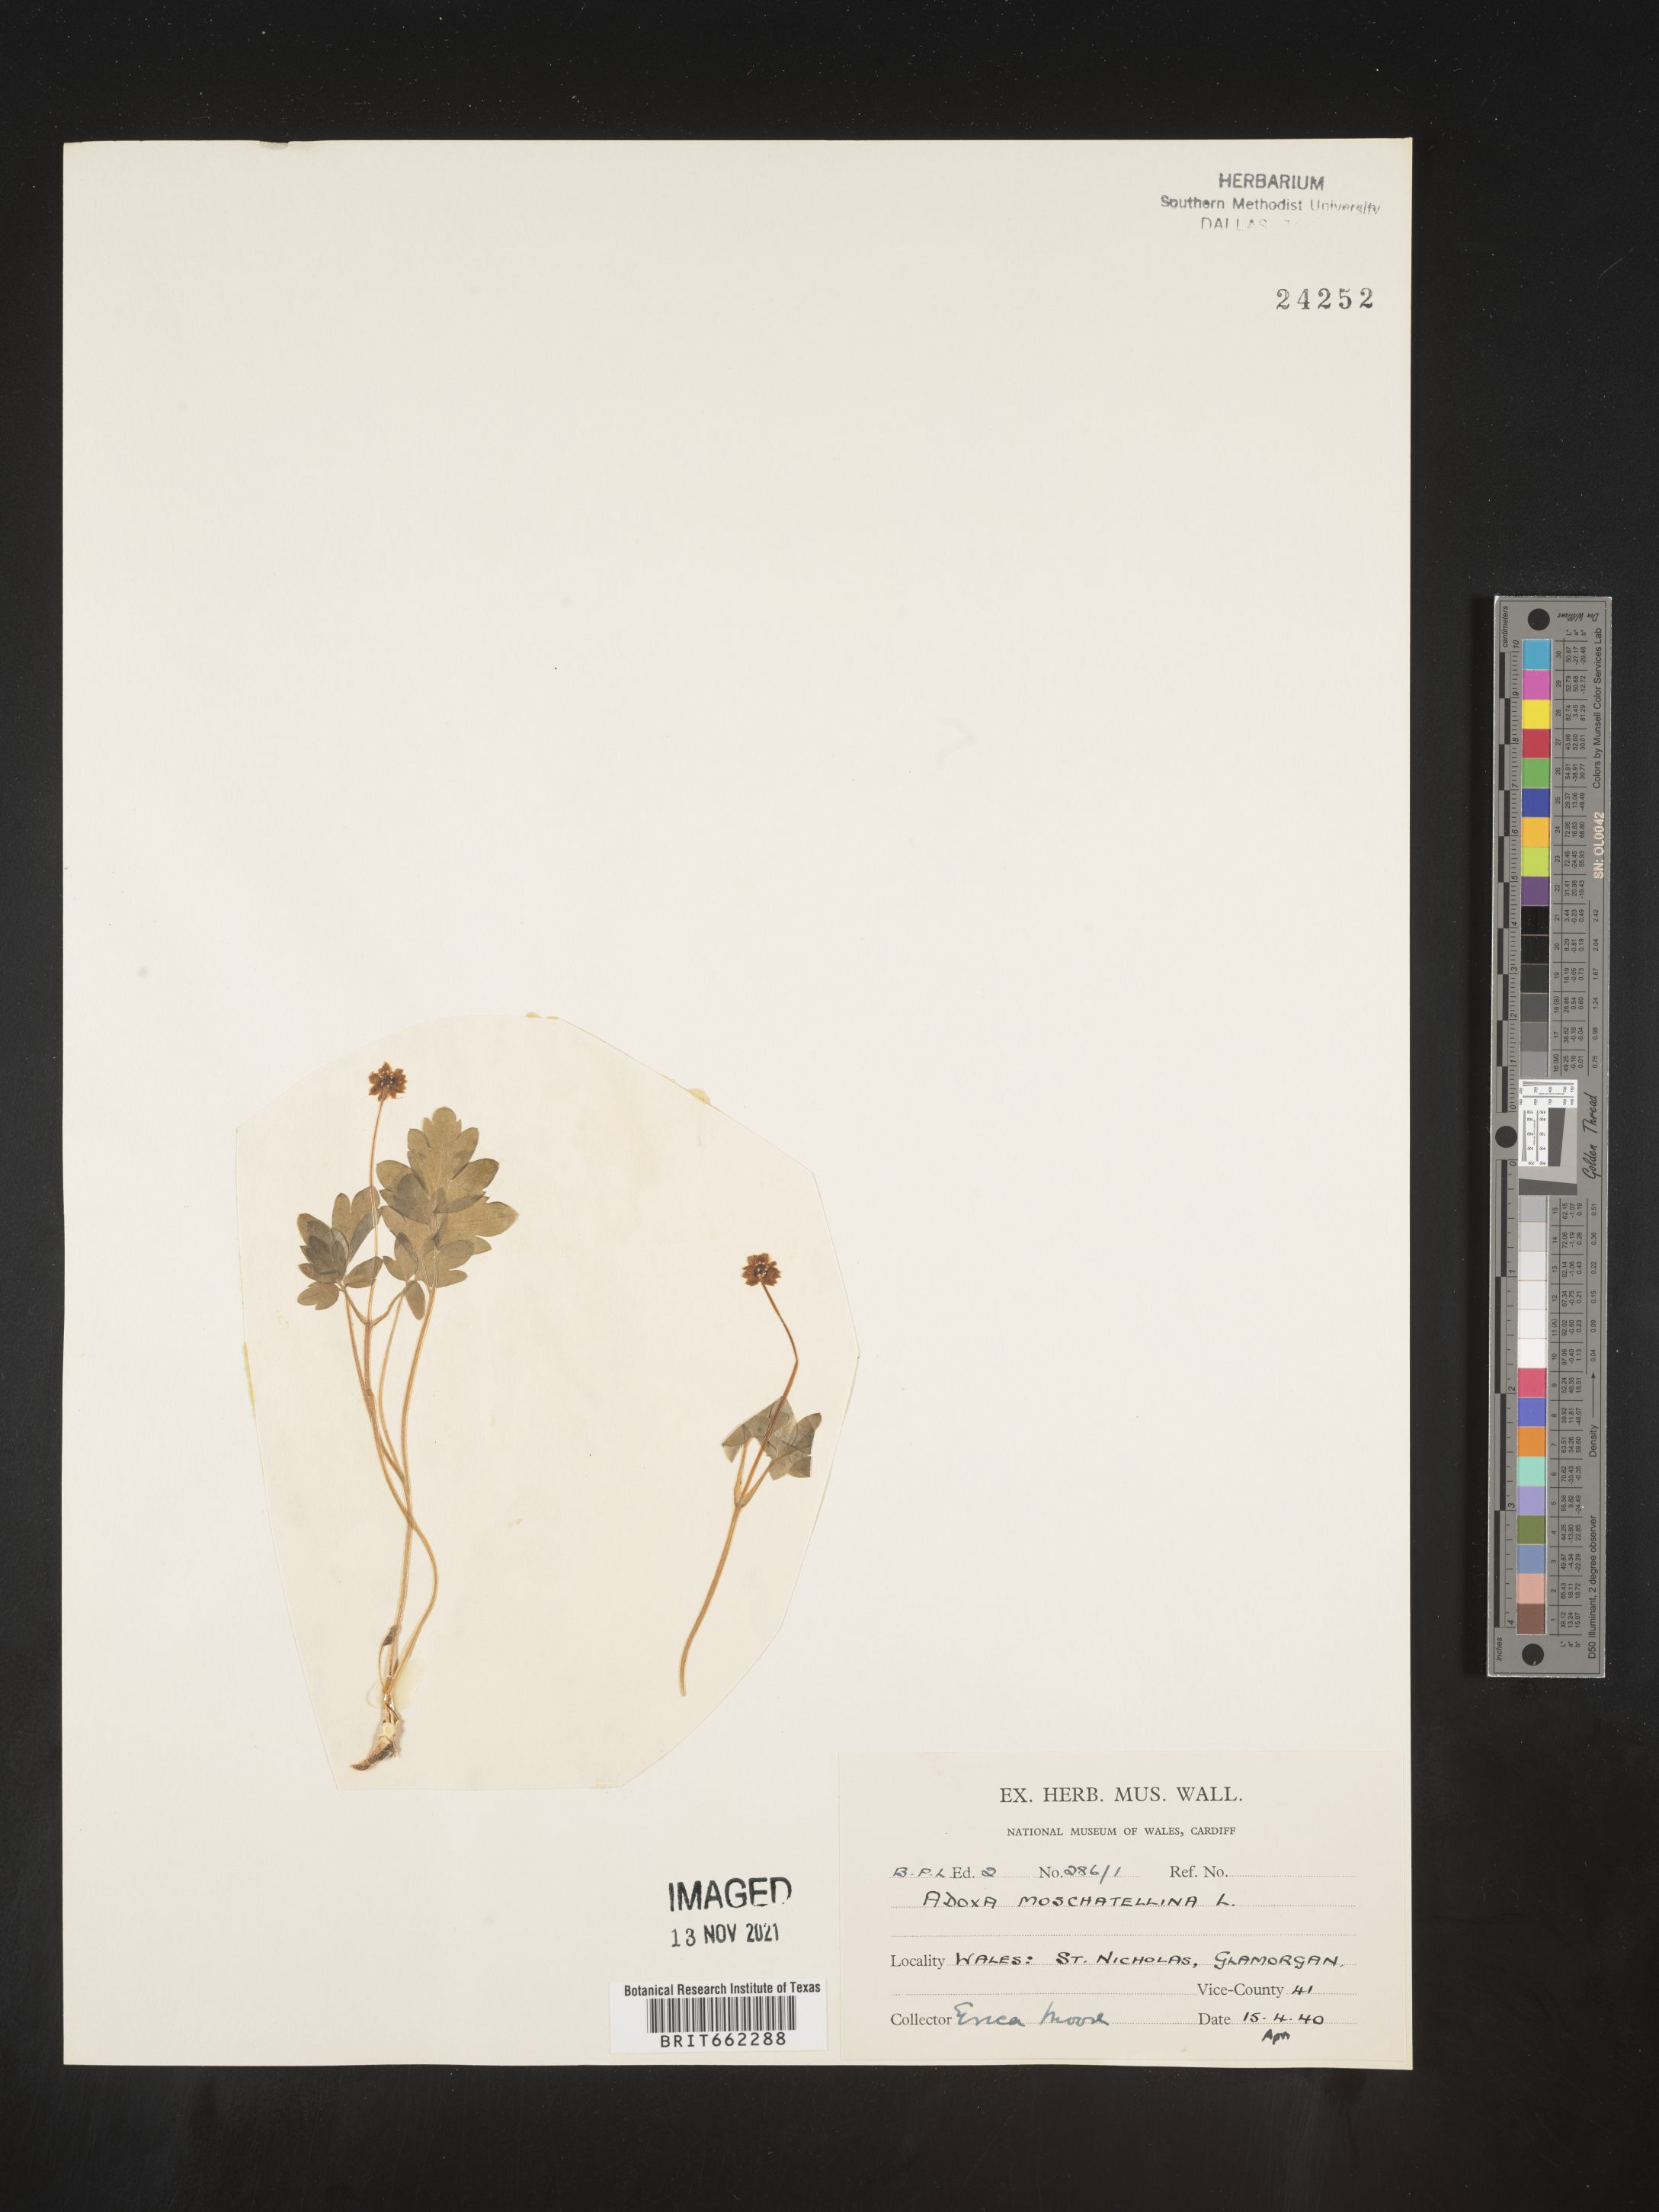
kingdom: Plantae
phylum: Tracheophyta
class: Magnoliopsida
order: Dipsacales
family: Viburnaceae
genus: Adoxa
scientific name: Adoxa
